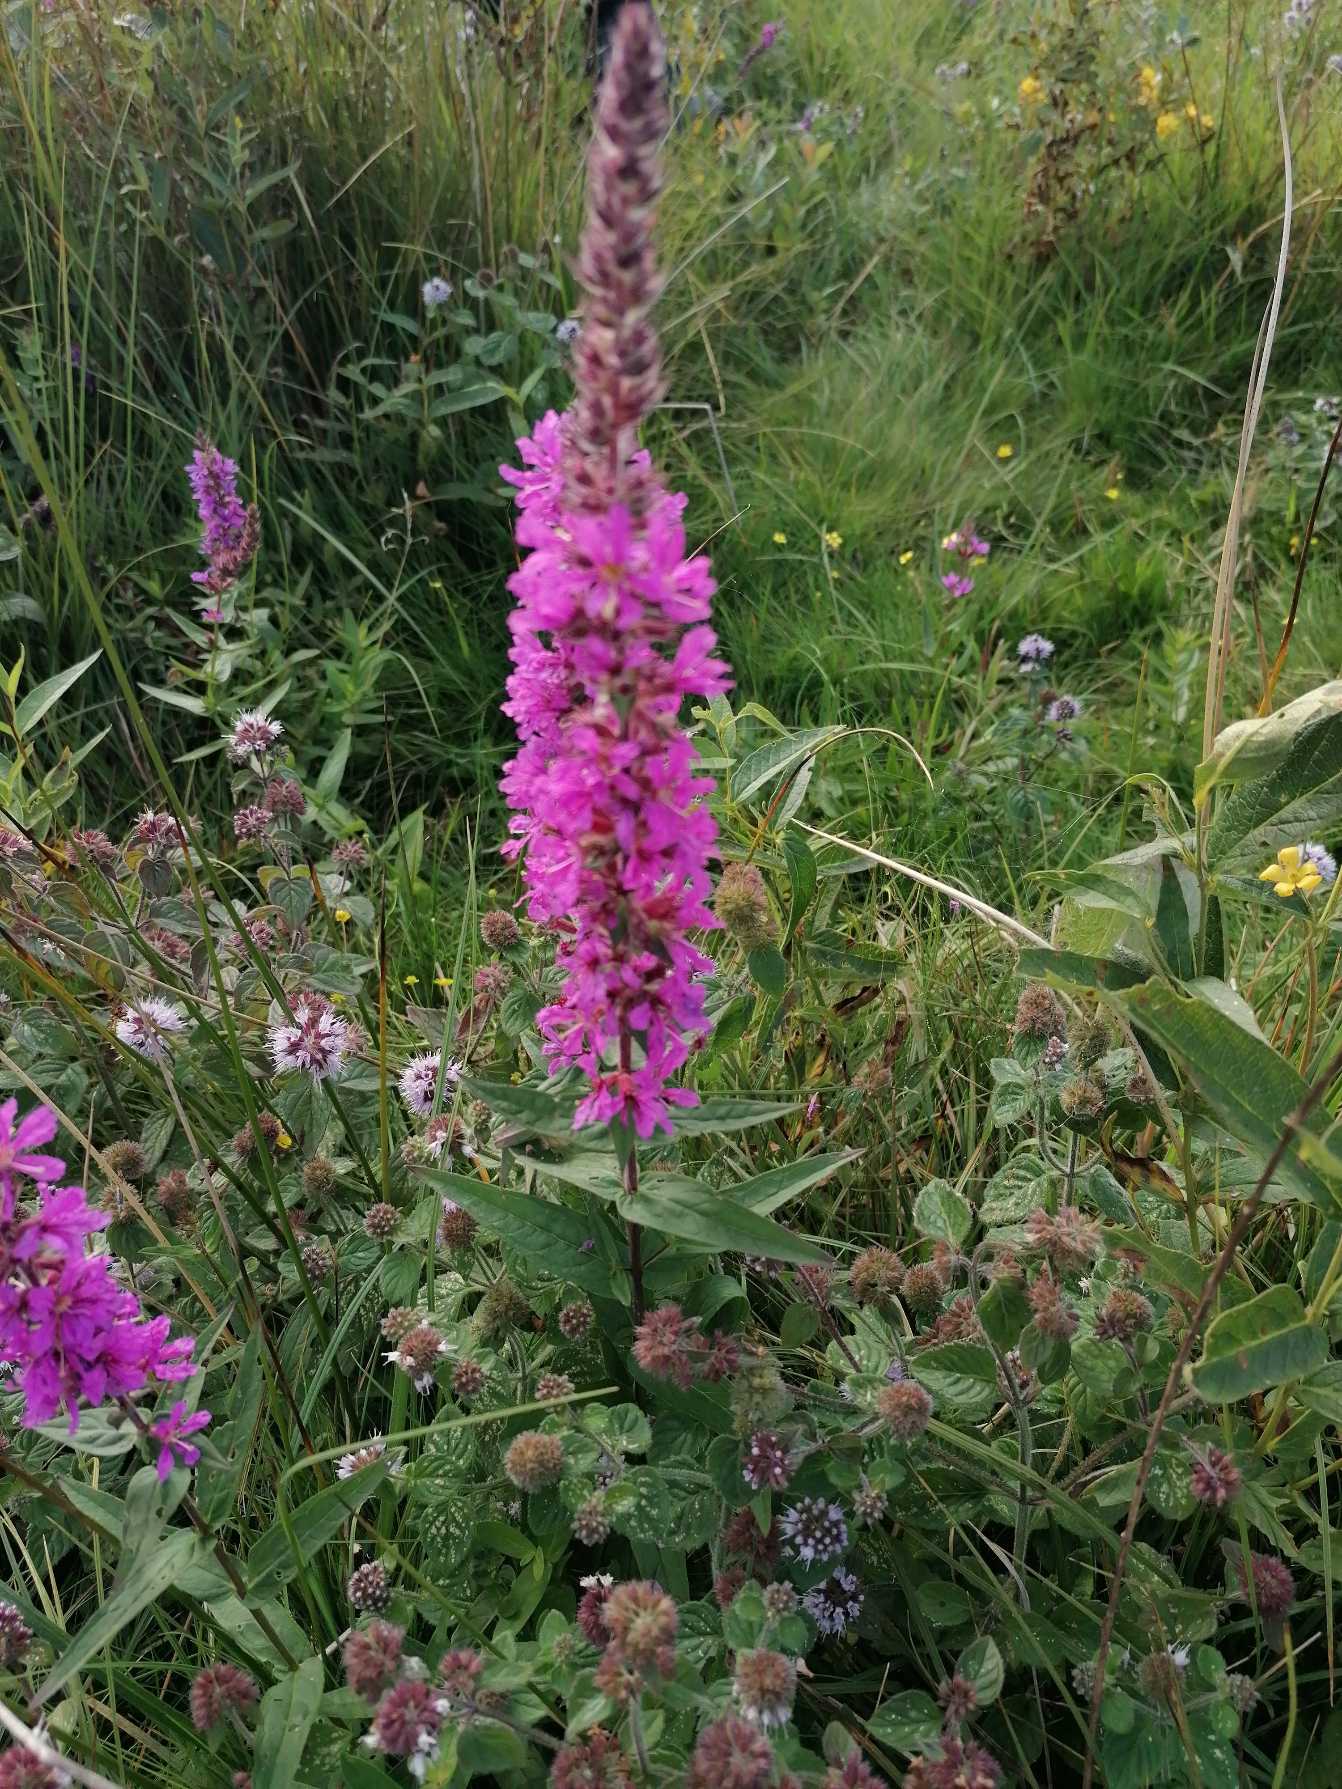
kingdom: Plantae
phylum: Tracheophyta
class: Magnoliopsida
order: Myrtales
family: Lythraceae
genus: Lythrum
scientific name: Lythrum salicaria
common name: Kattehale
